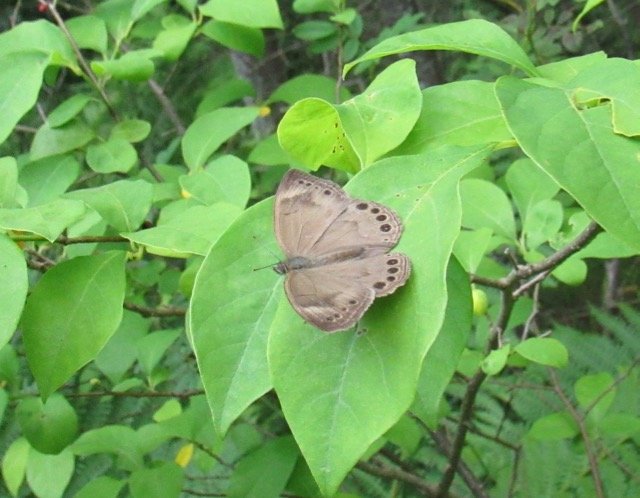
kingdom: Animalia
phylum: Arthropoda
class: Insecta
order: Lepidoptera
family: Nymphalidae
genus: Lethe
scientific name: Lethe eurydice
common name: Appalachian Eyed Brown
